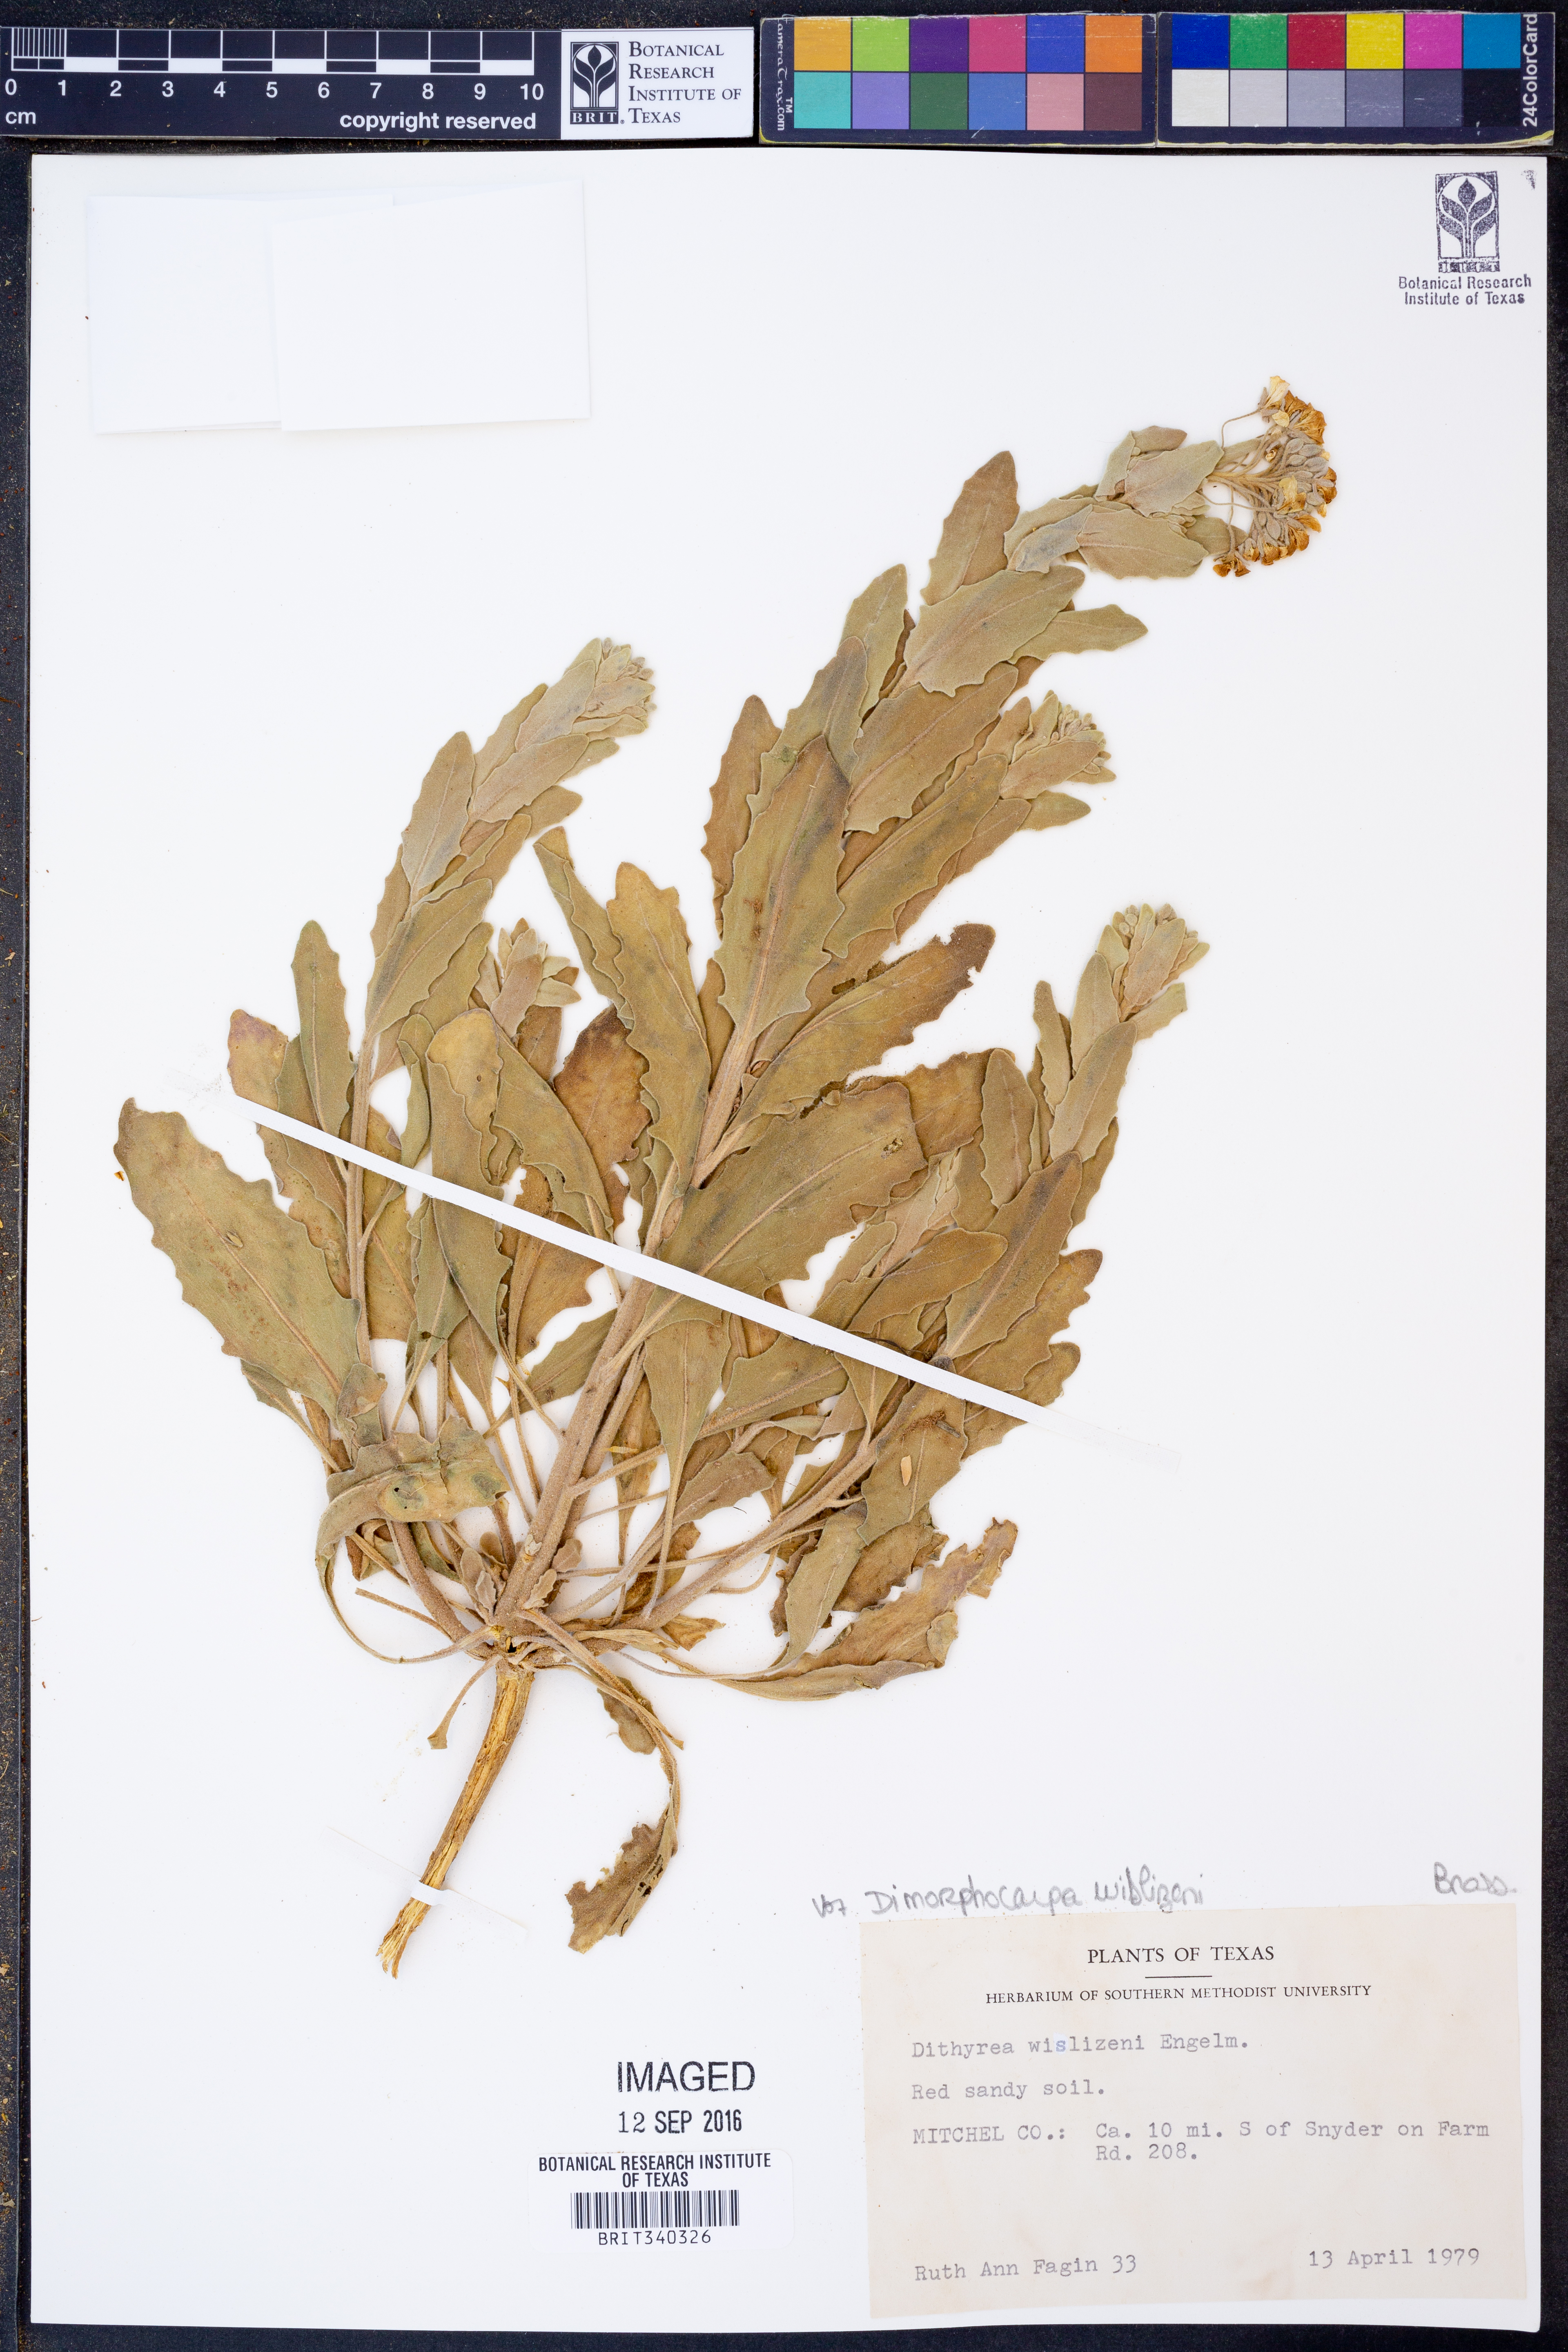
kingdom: Plantae
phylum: Tracheophyta
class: Magnoliopsida
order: Brassicales
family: Brassicaceae
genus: Dimorphocarpa
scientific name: Dimorphocarpa wislizenii
